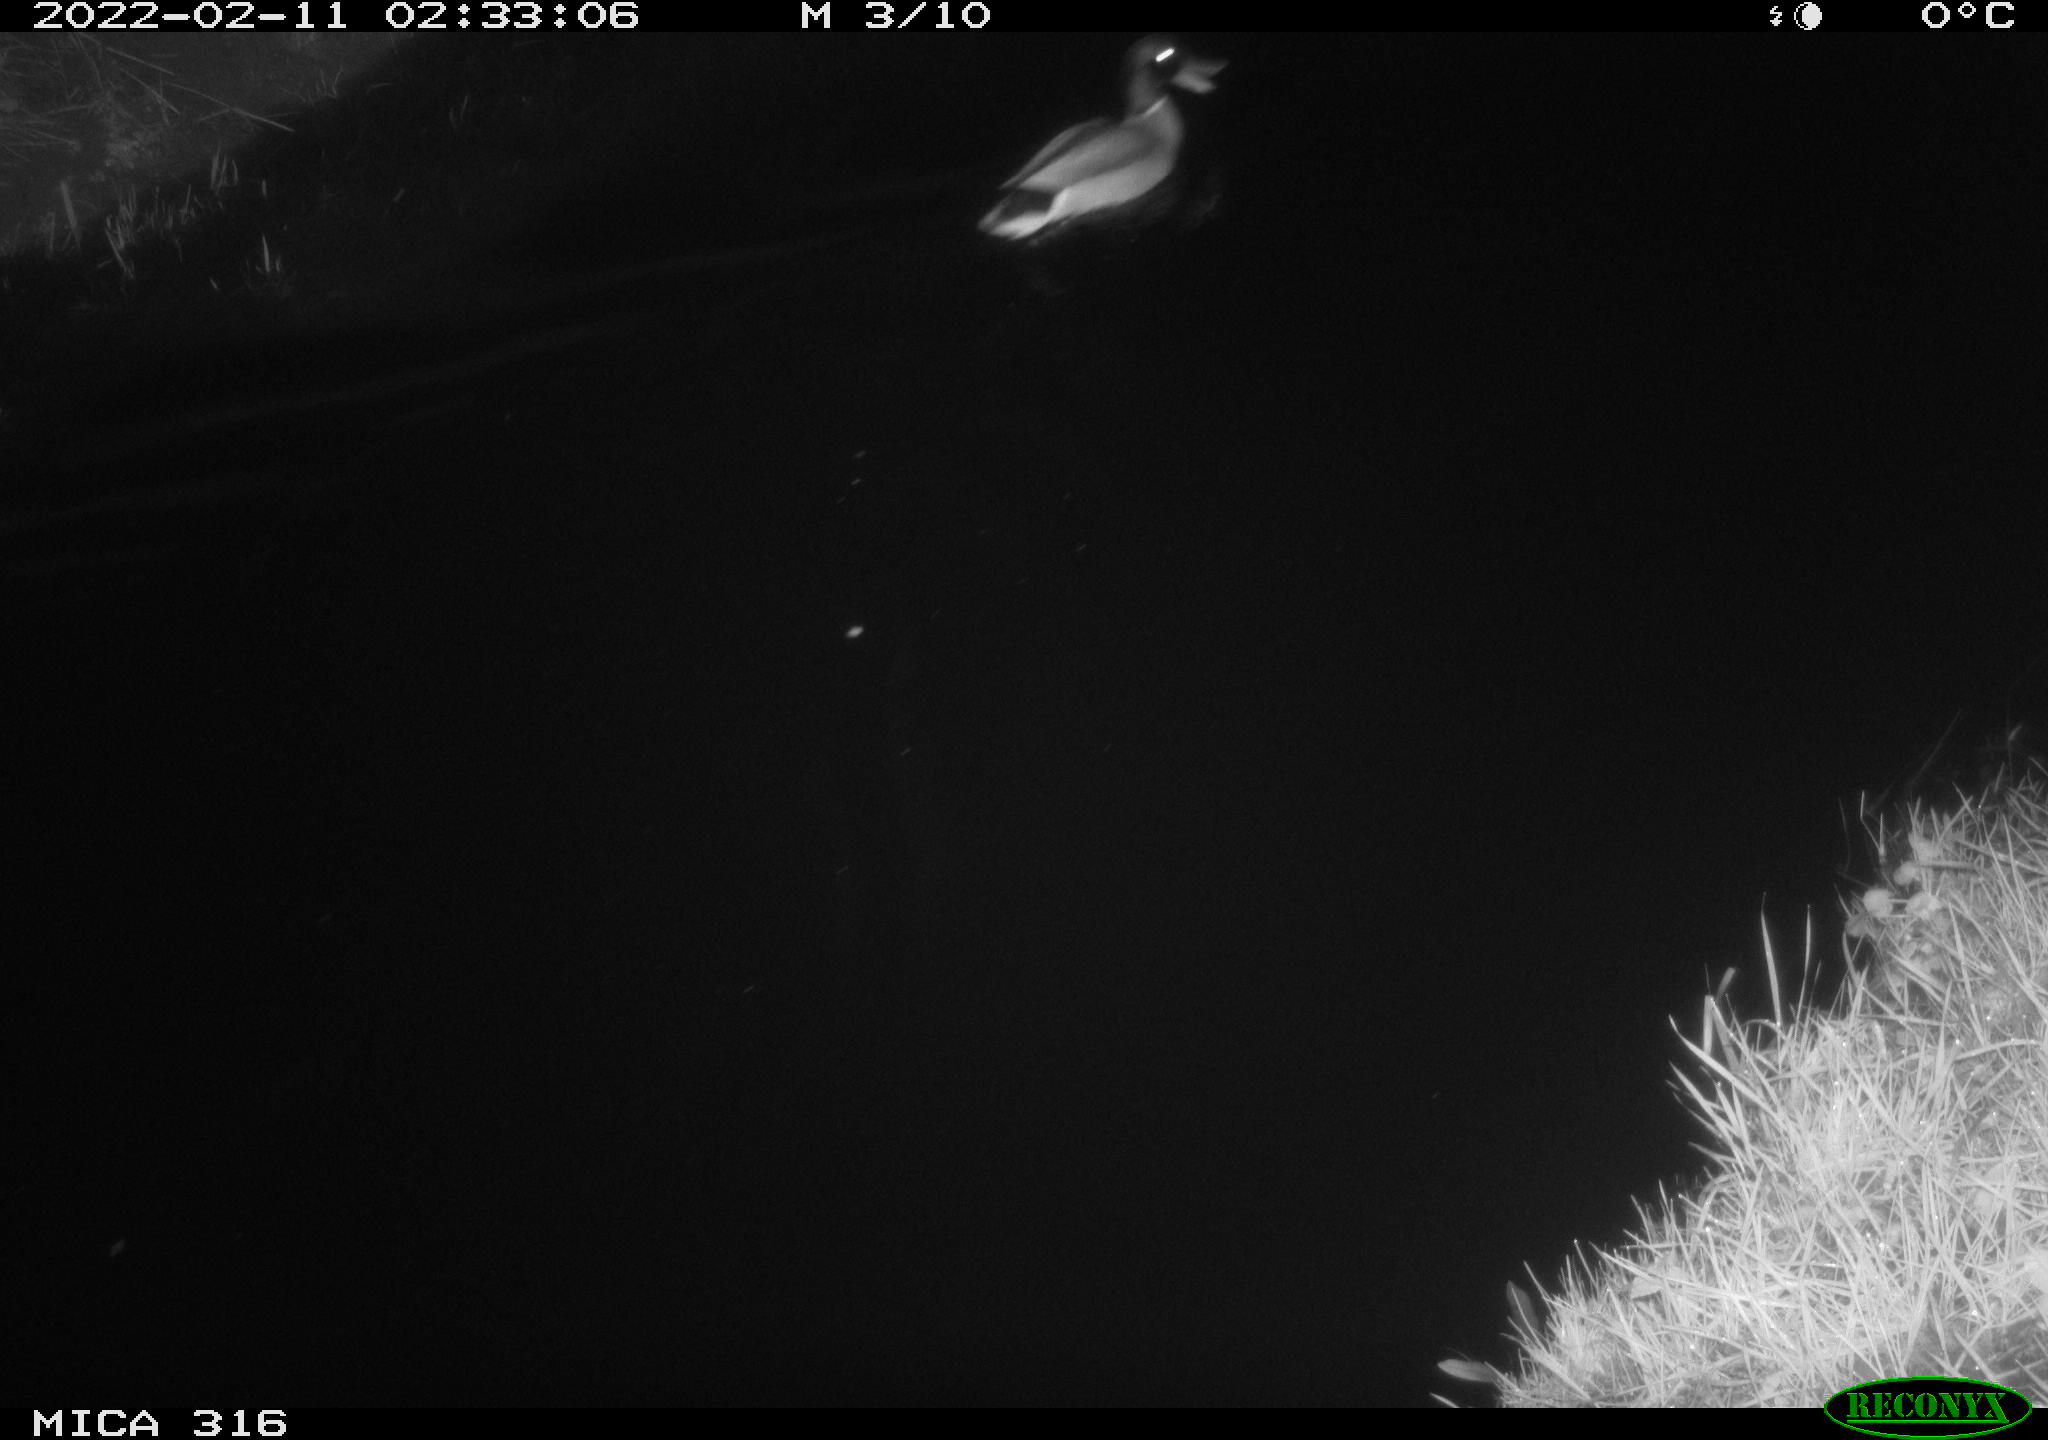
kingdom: Animalia
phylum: Chordata
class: Aves
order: Anseriformes
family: Anatidae
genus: Anas
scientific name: Anas platyrhynchos
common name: Mallard
